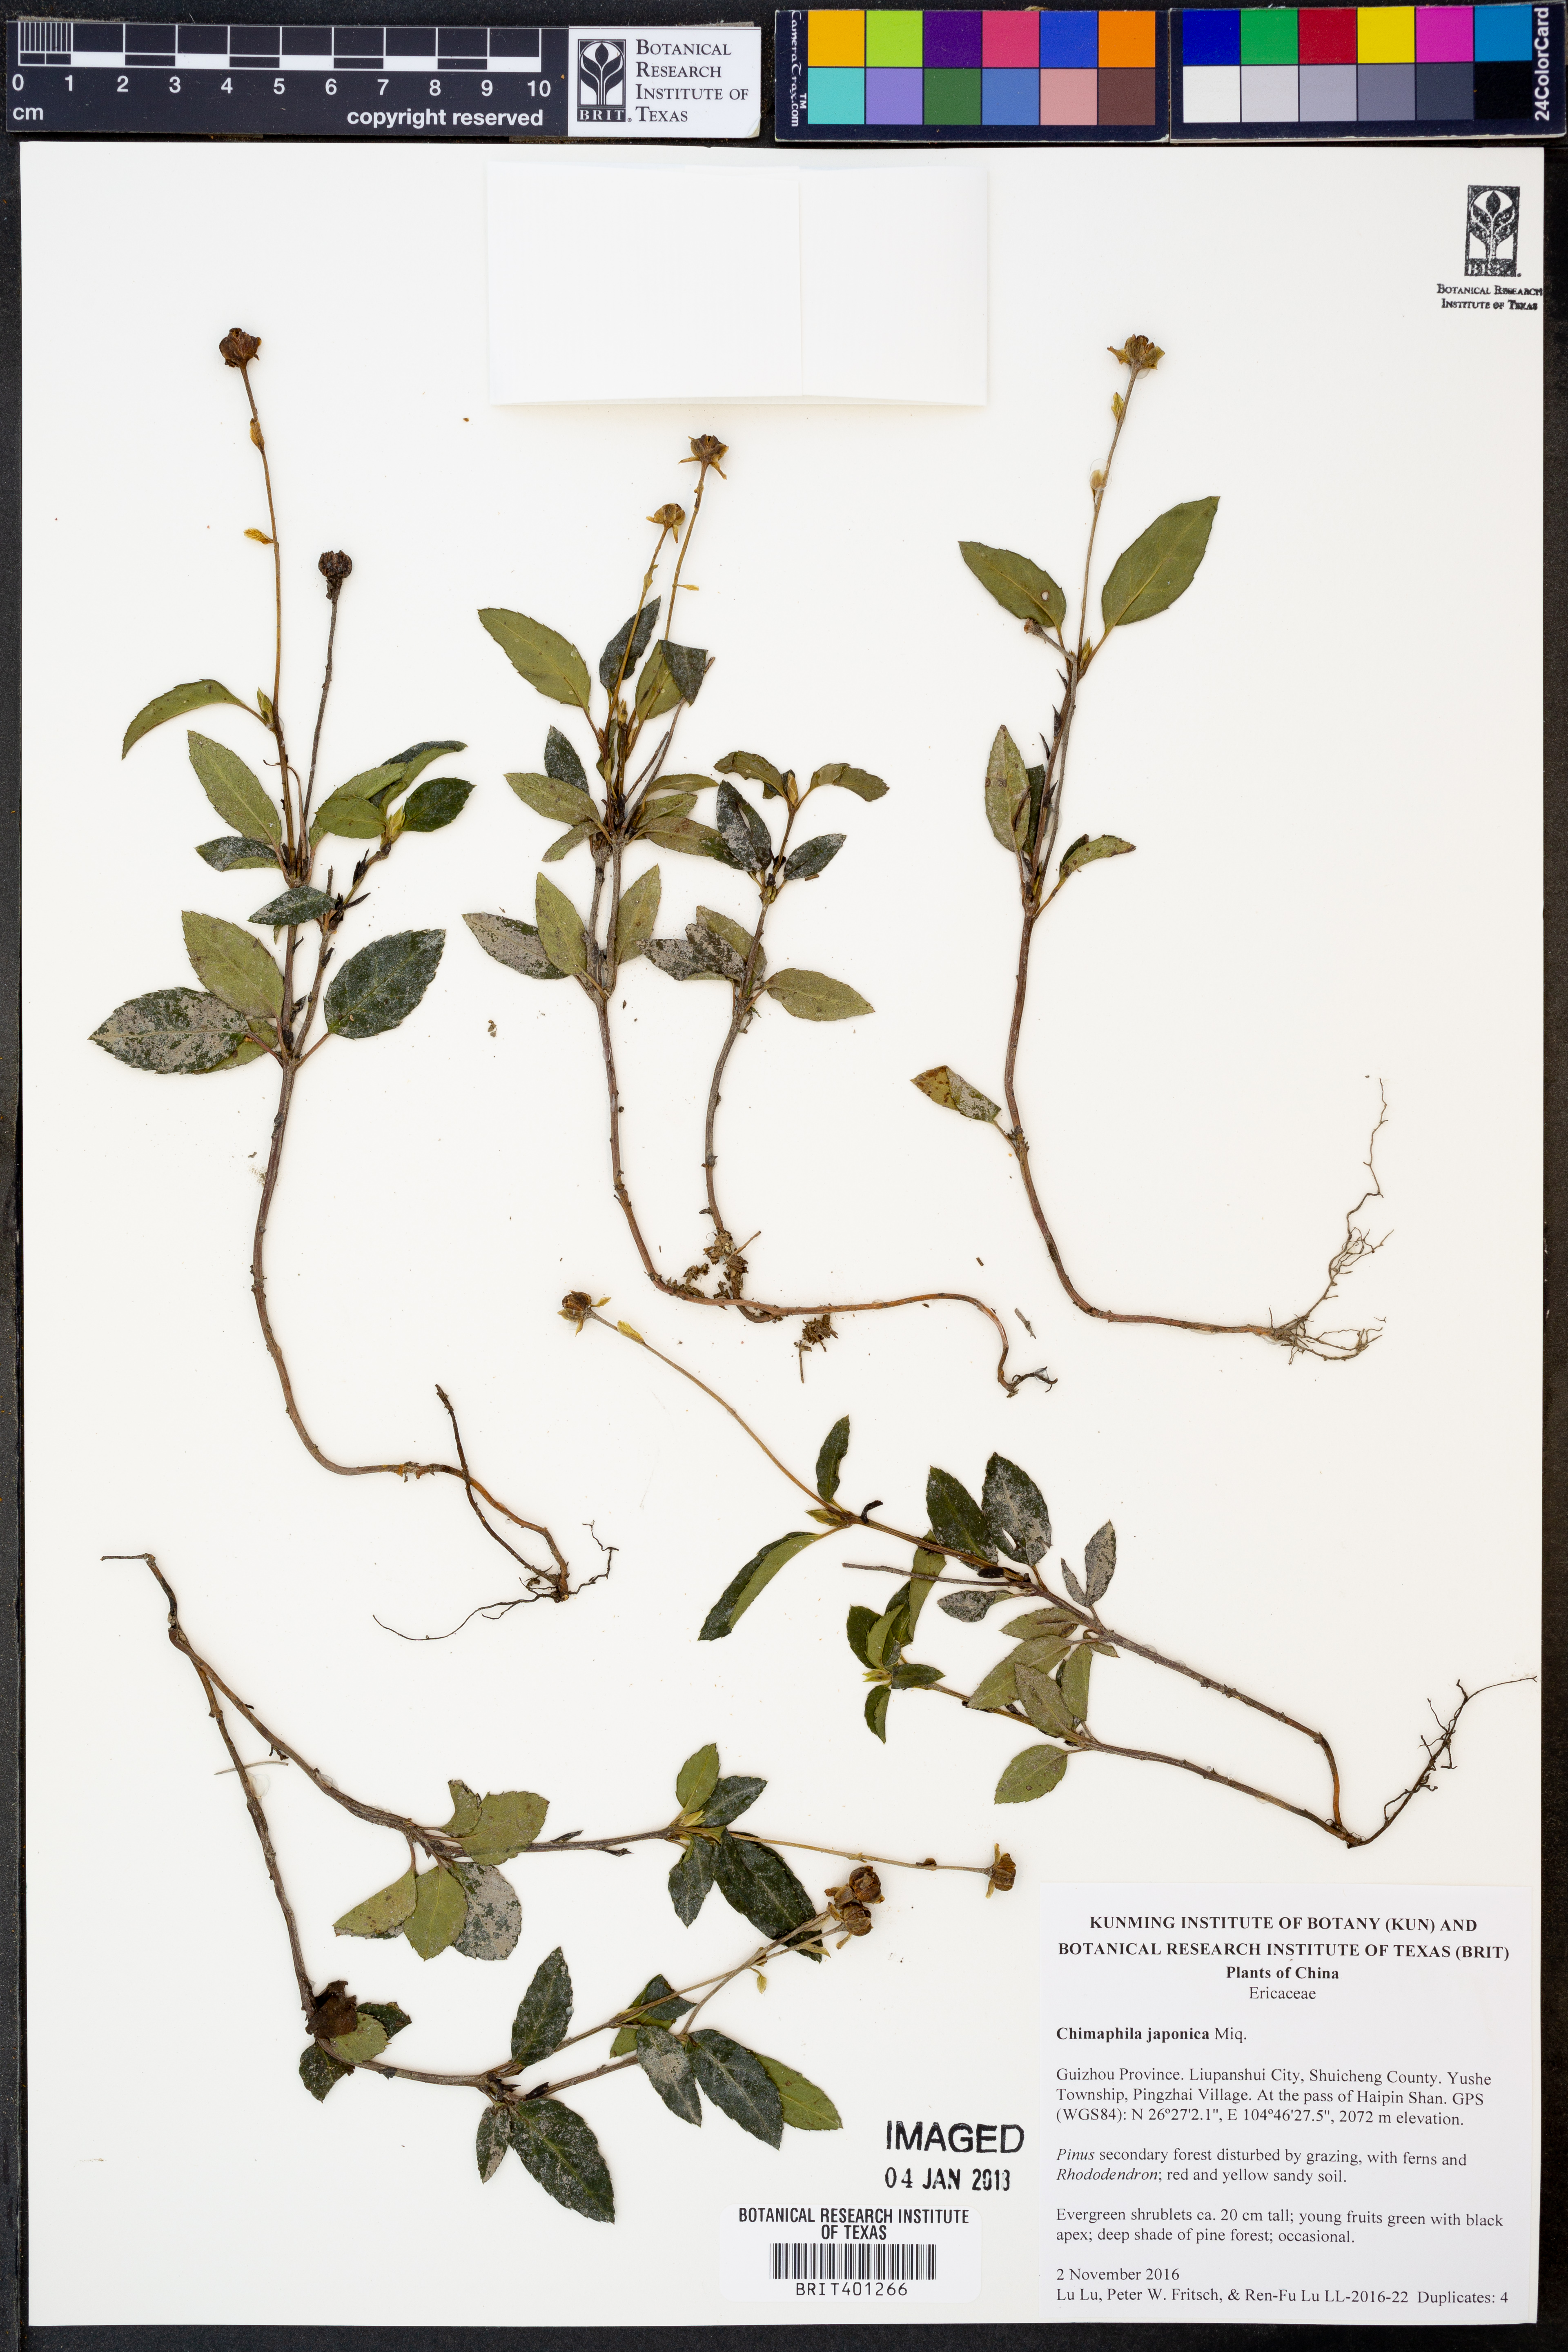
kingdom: Plantae
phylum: Tracheophyta
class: Magnoliopsida
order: Ericales
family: Ericaceae
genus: Chimaphila
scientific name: Chimaphila japonica
